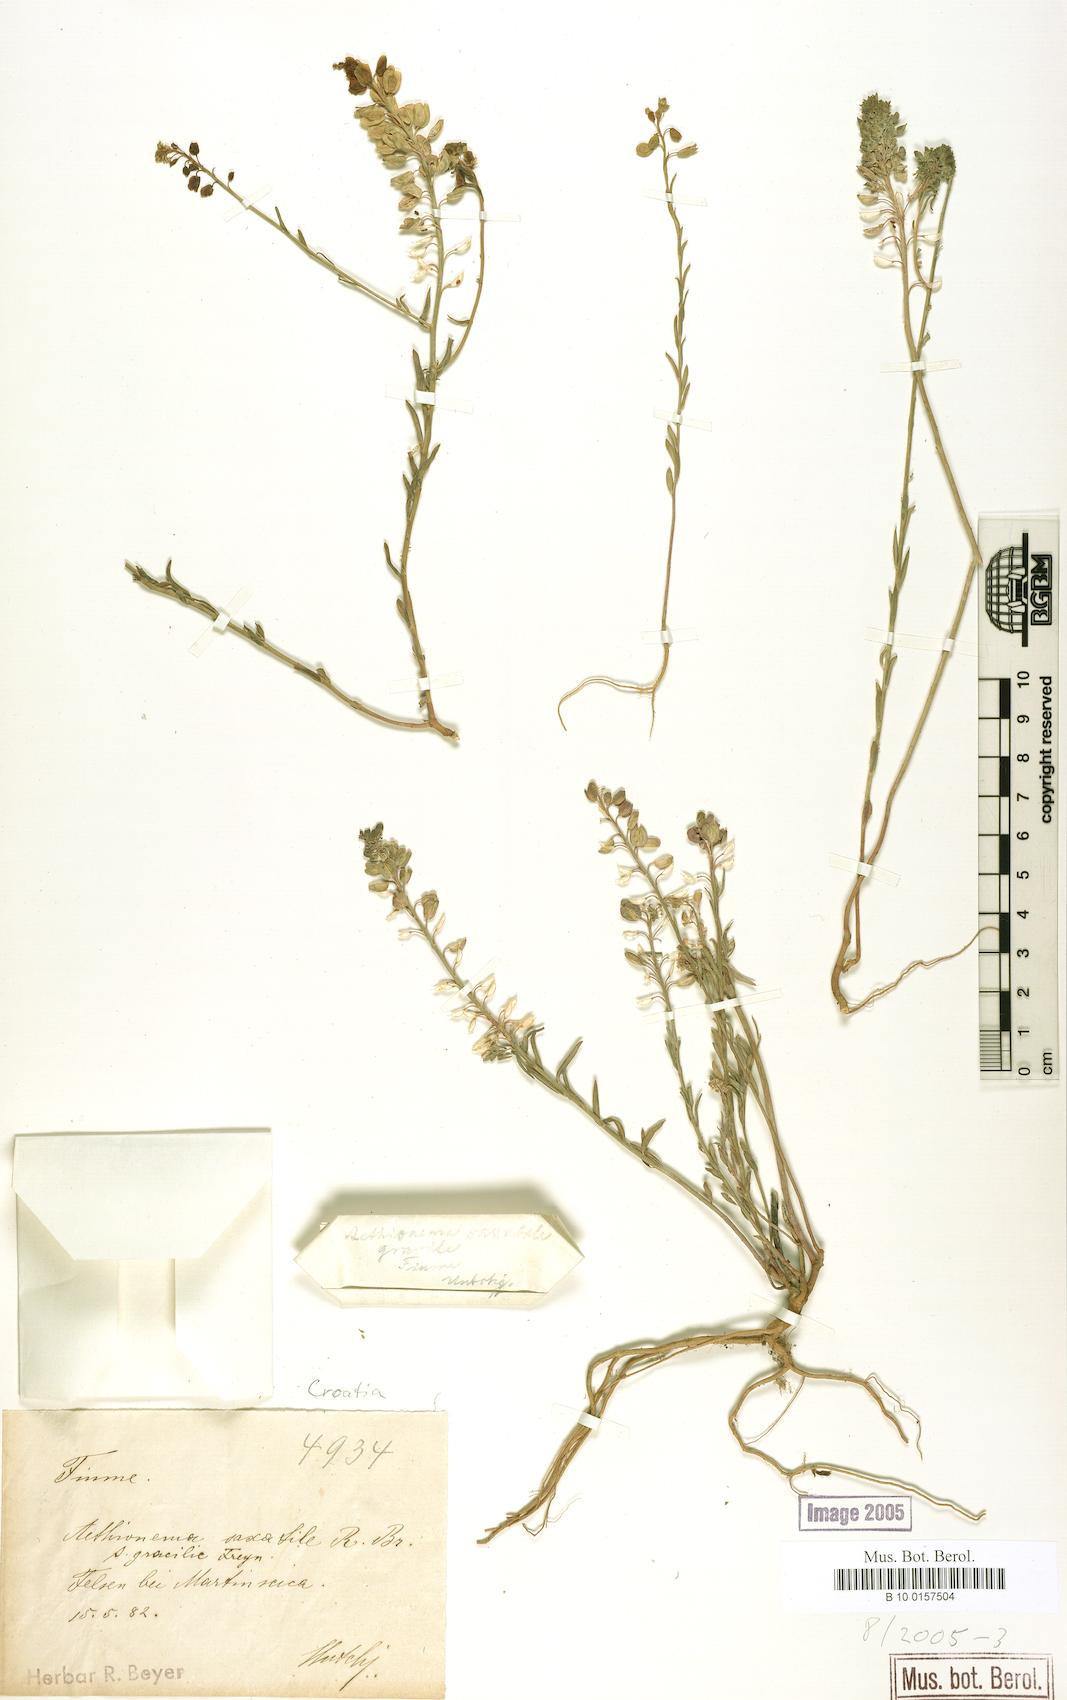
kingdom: Plantae
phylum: Tracheophyta
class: Magnoliopsida
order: Brassicales
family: Brassicaceae
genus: Aethionema
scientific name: Aethionema saxatile
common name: Burnt candytuft
